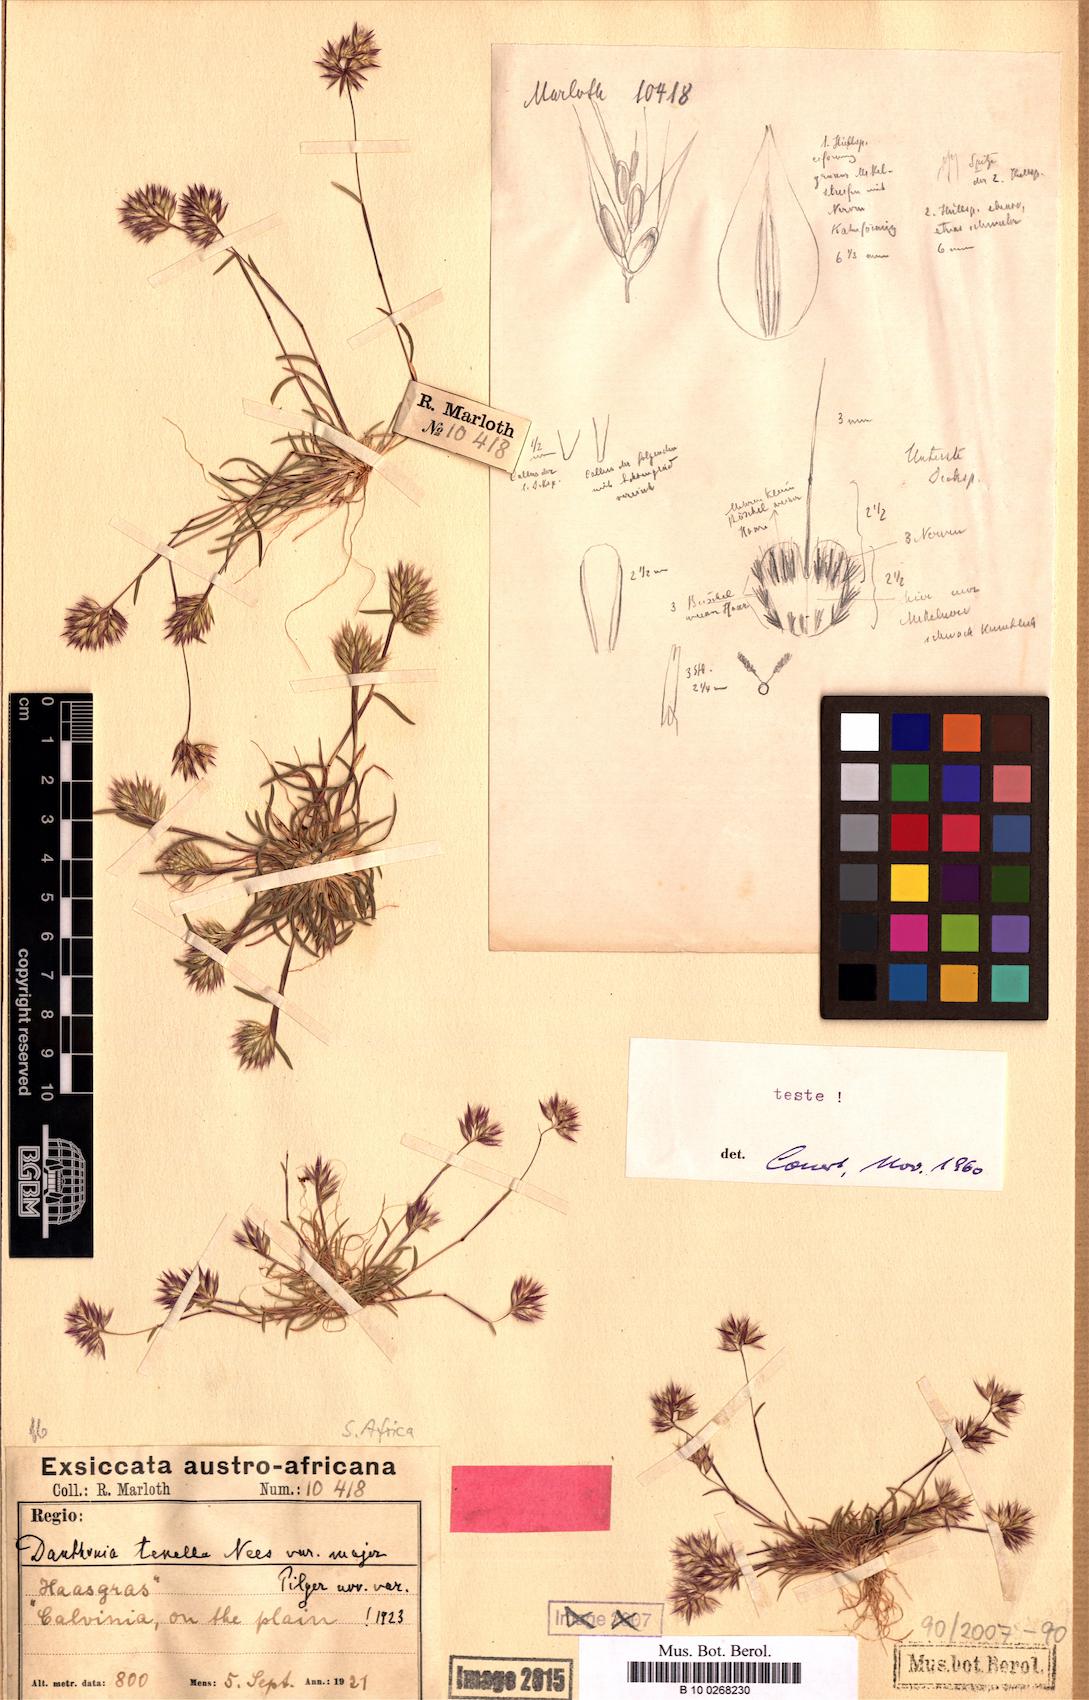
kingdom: Plantae
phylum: Tracheophyta
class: Liliopsida
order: Poales
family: Poaceae
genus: Tribolium
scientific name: Tribolium tenellum
